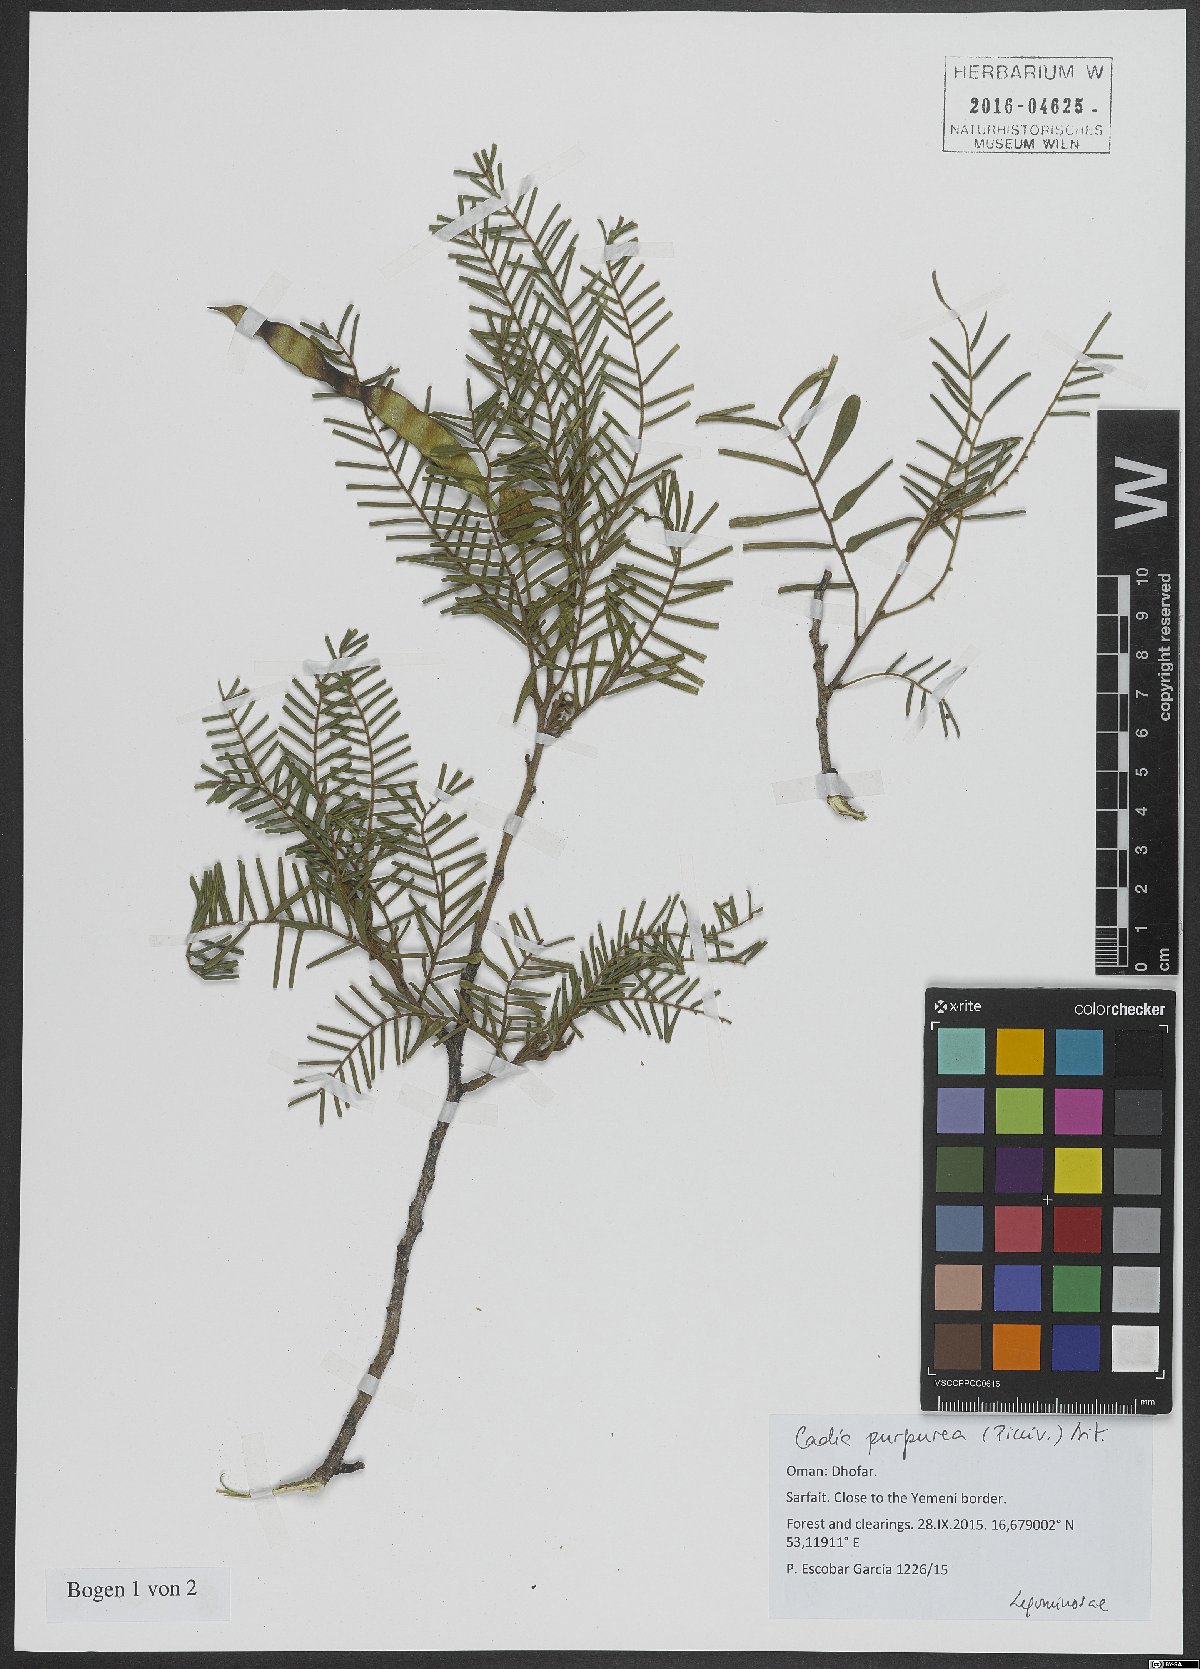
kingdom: Plantae
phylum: Tracheophyta
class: Magnoliopsida
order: Fabales
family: Fabaceae
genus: Cadia
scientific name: Cadia purpurea
